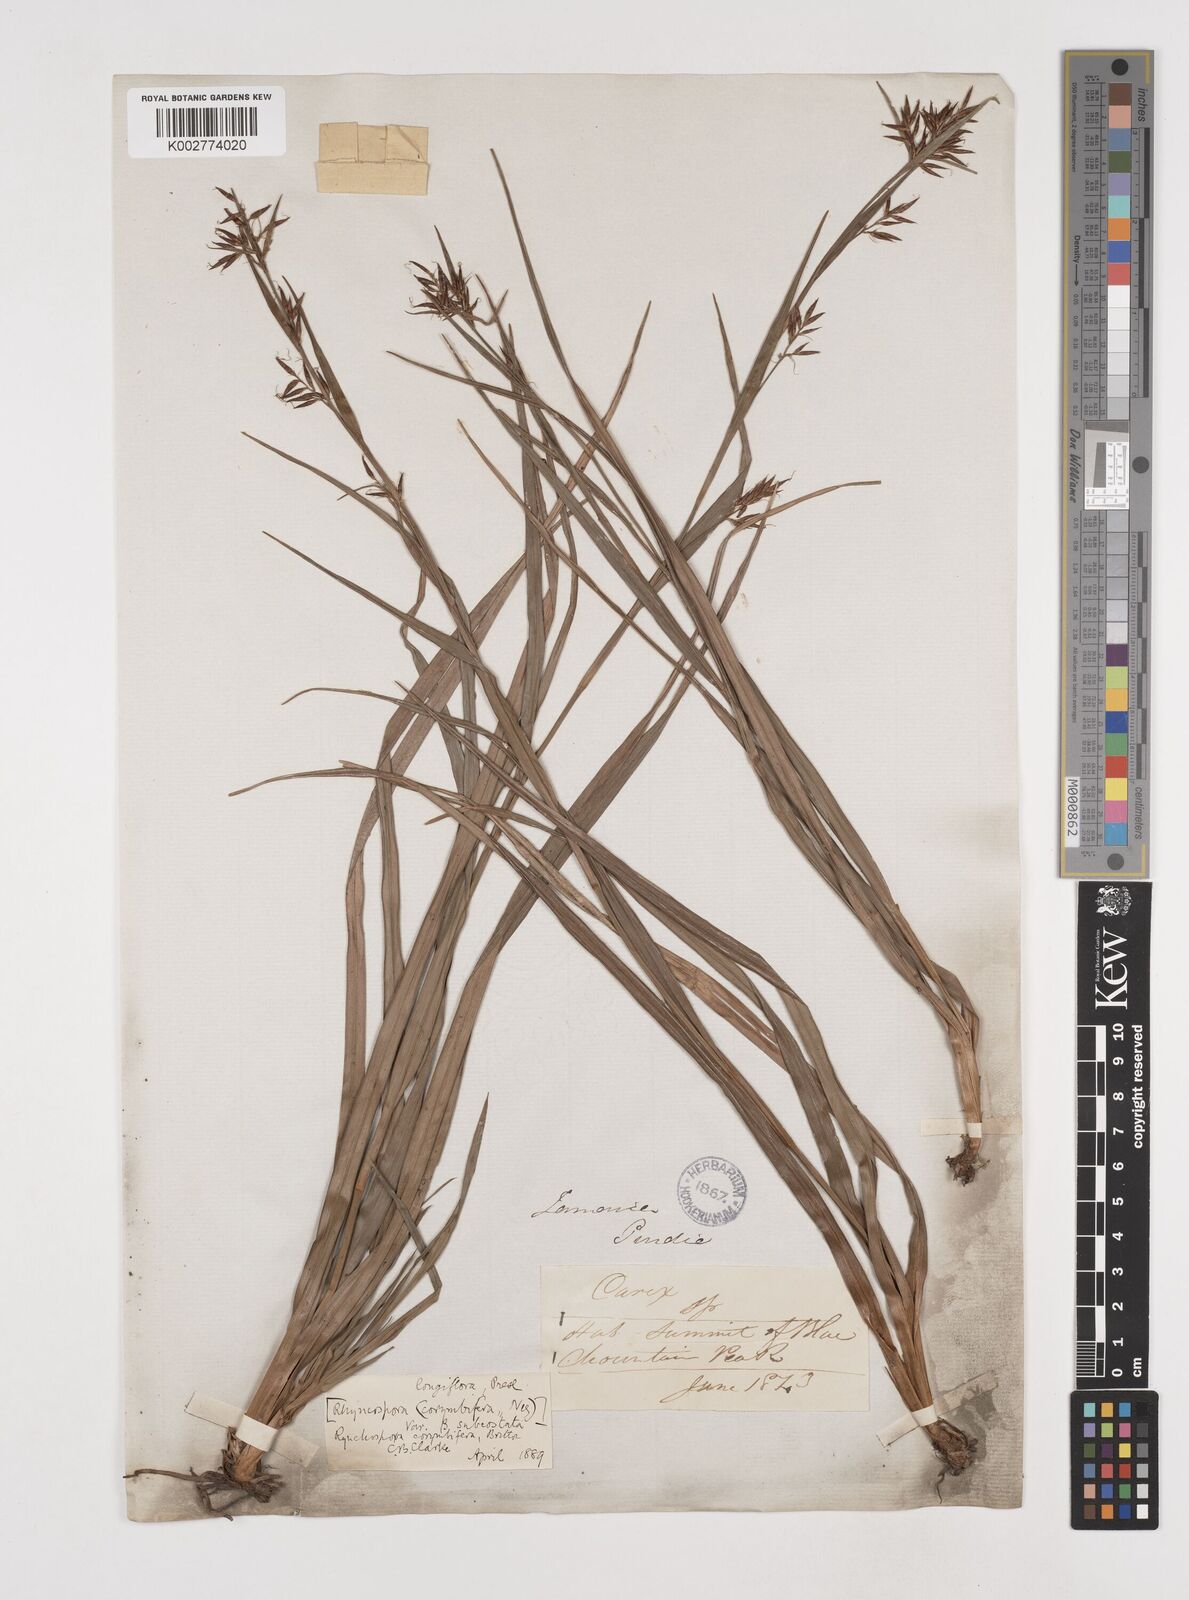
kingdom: Plantae
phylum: Tracheophyta
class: Liliopsida
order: Poales
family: Cyperaceae
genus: Rhynchospora
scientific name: Rhynchospora longiflora
